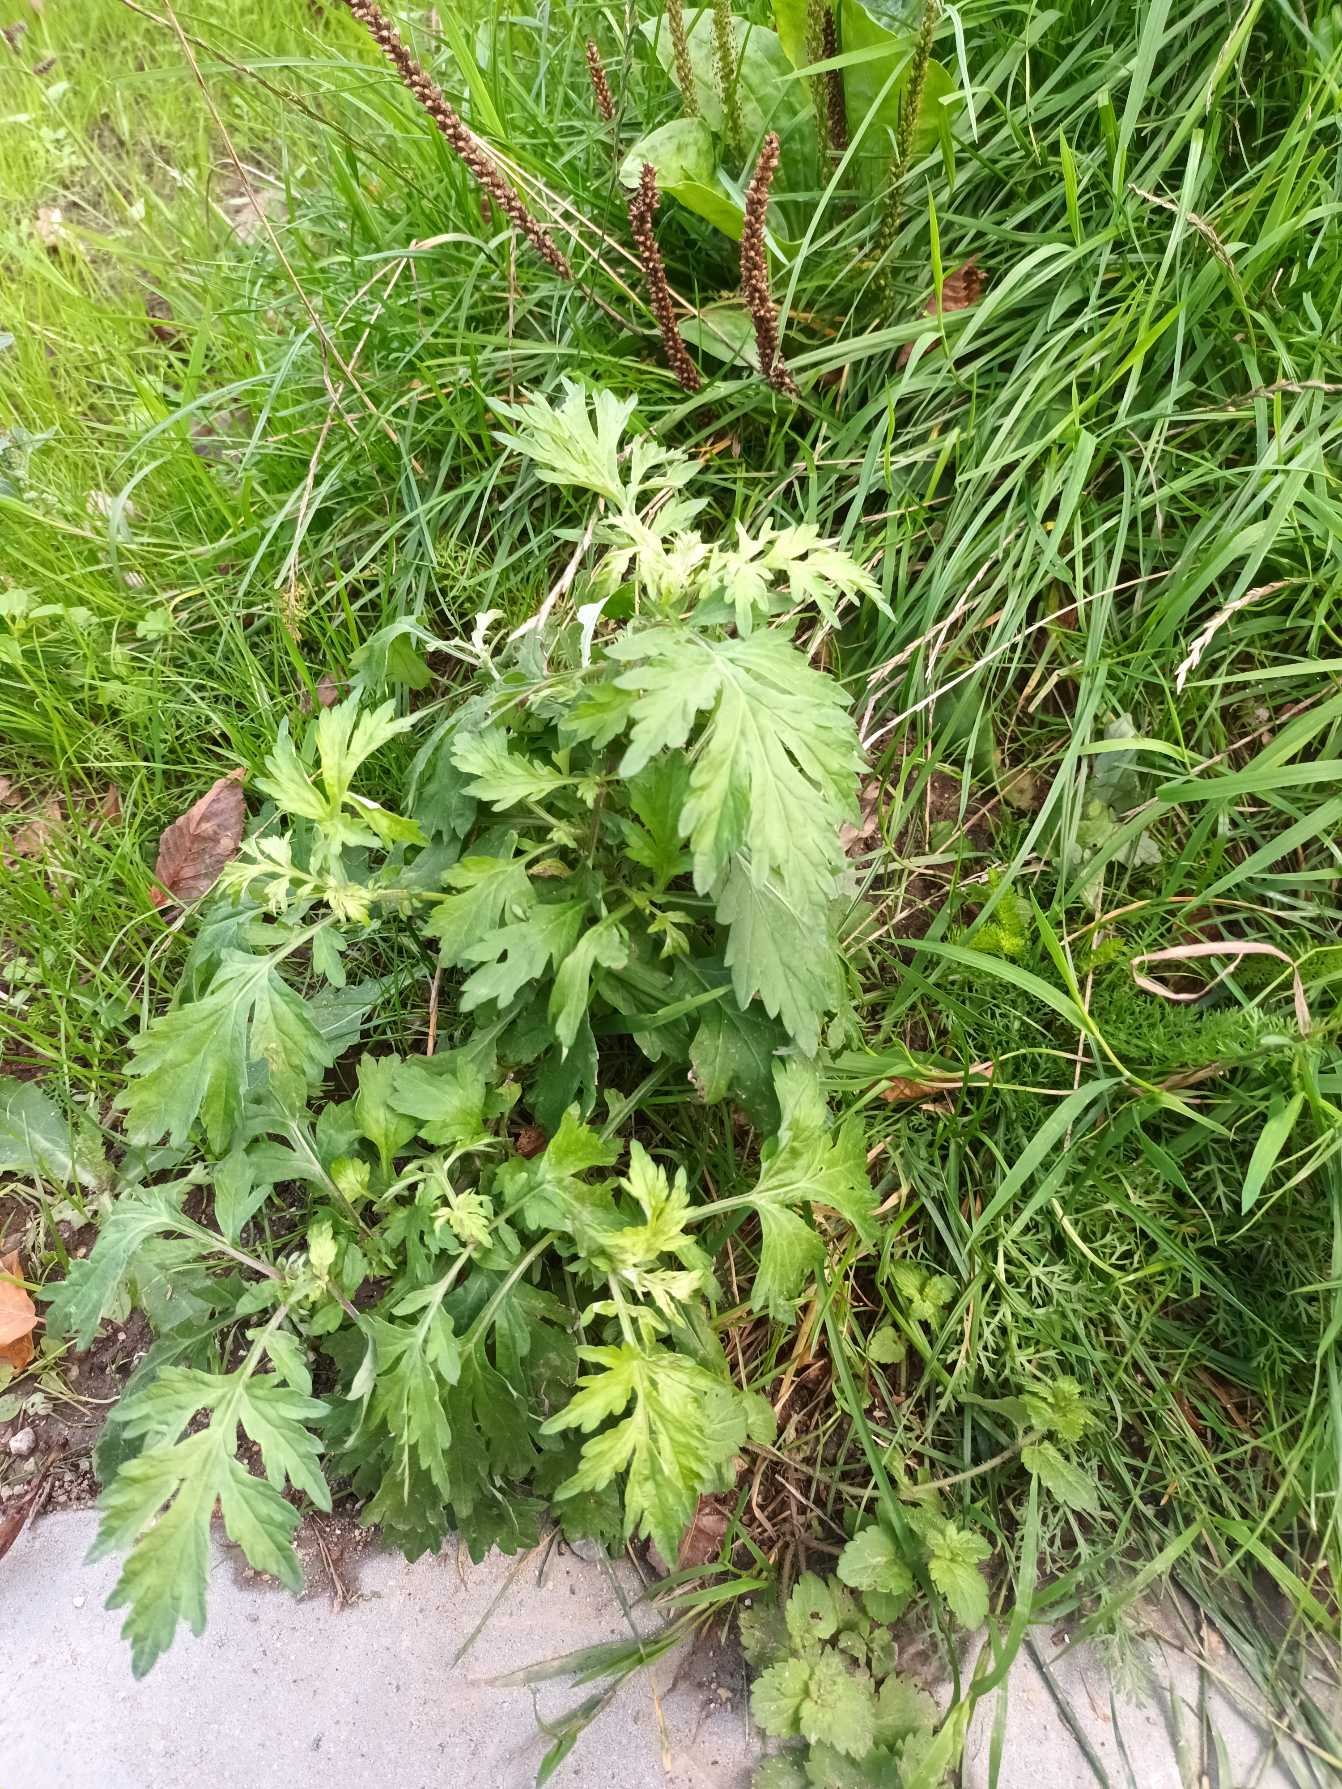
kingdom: Plantae
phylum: Tracheophyta
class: Magnoliopsida
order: Asterales
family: Asteraceae
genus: Artemisia
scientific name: Artemisia vulgaris
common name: Grå-bynke
